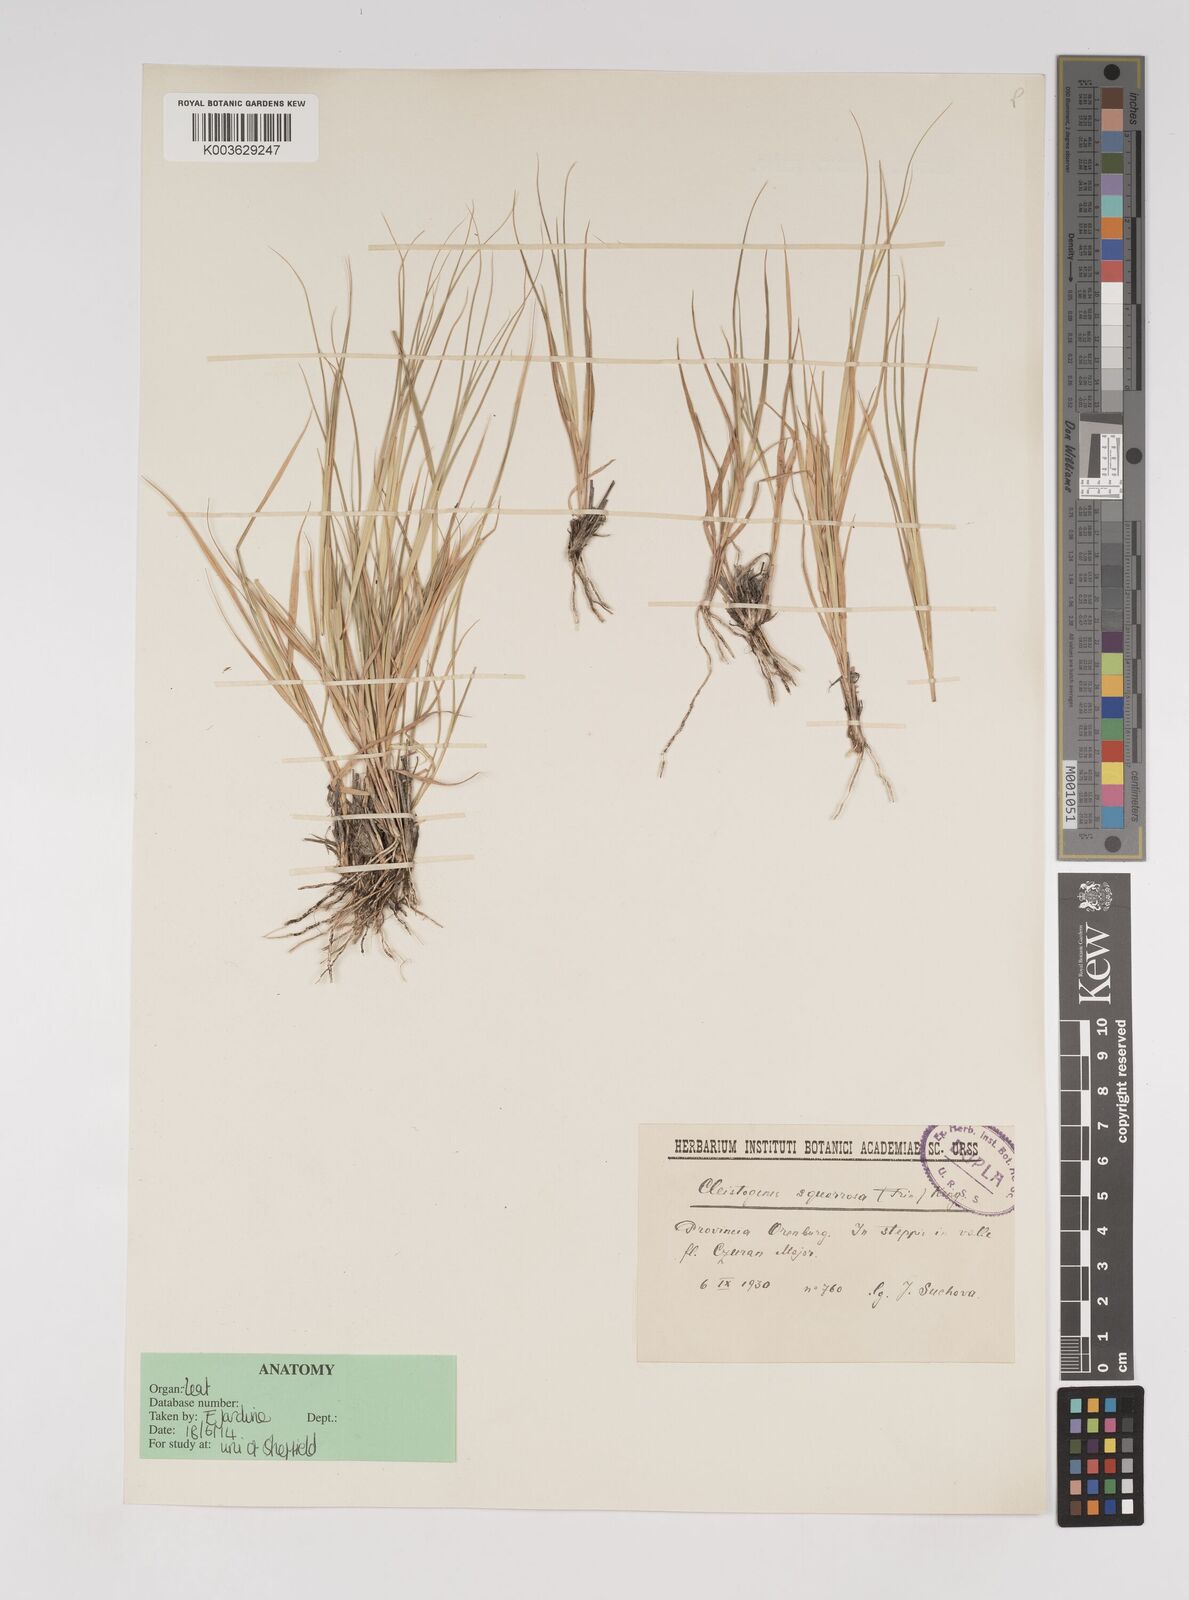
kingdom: Plantae
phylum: Tracheophyta
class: Liliopsida
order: Poales
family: Poaceae
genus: Cleistogenes
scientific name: Cleistogenes squarrosa
